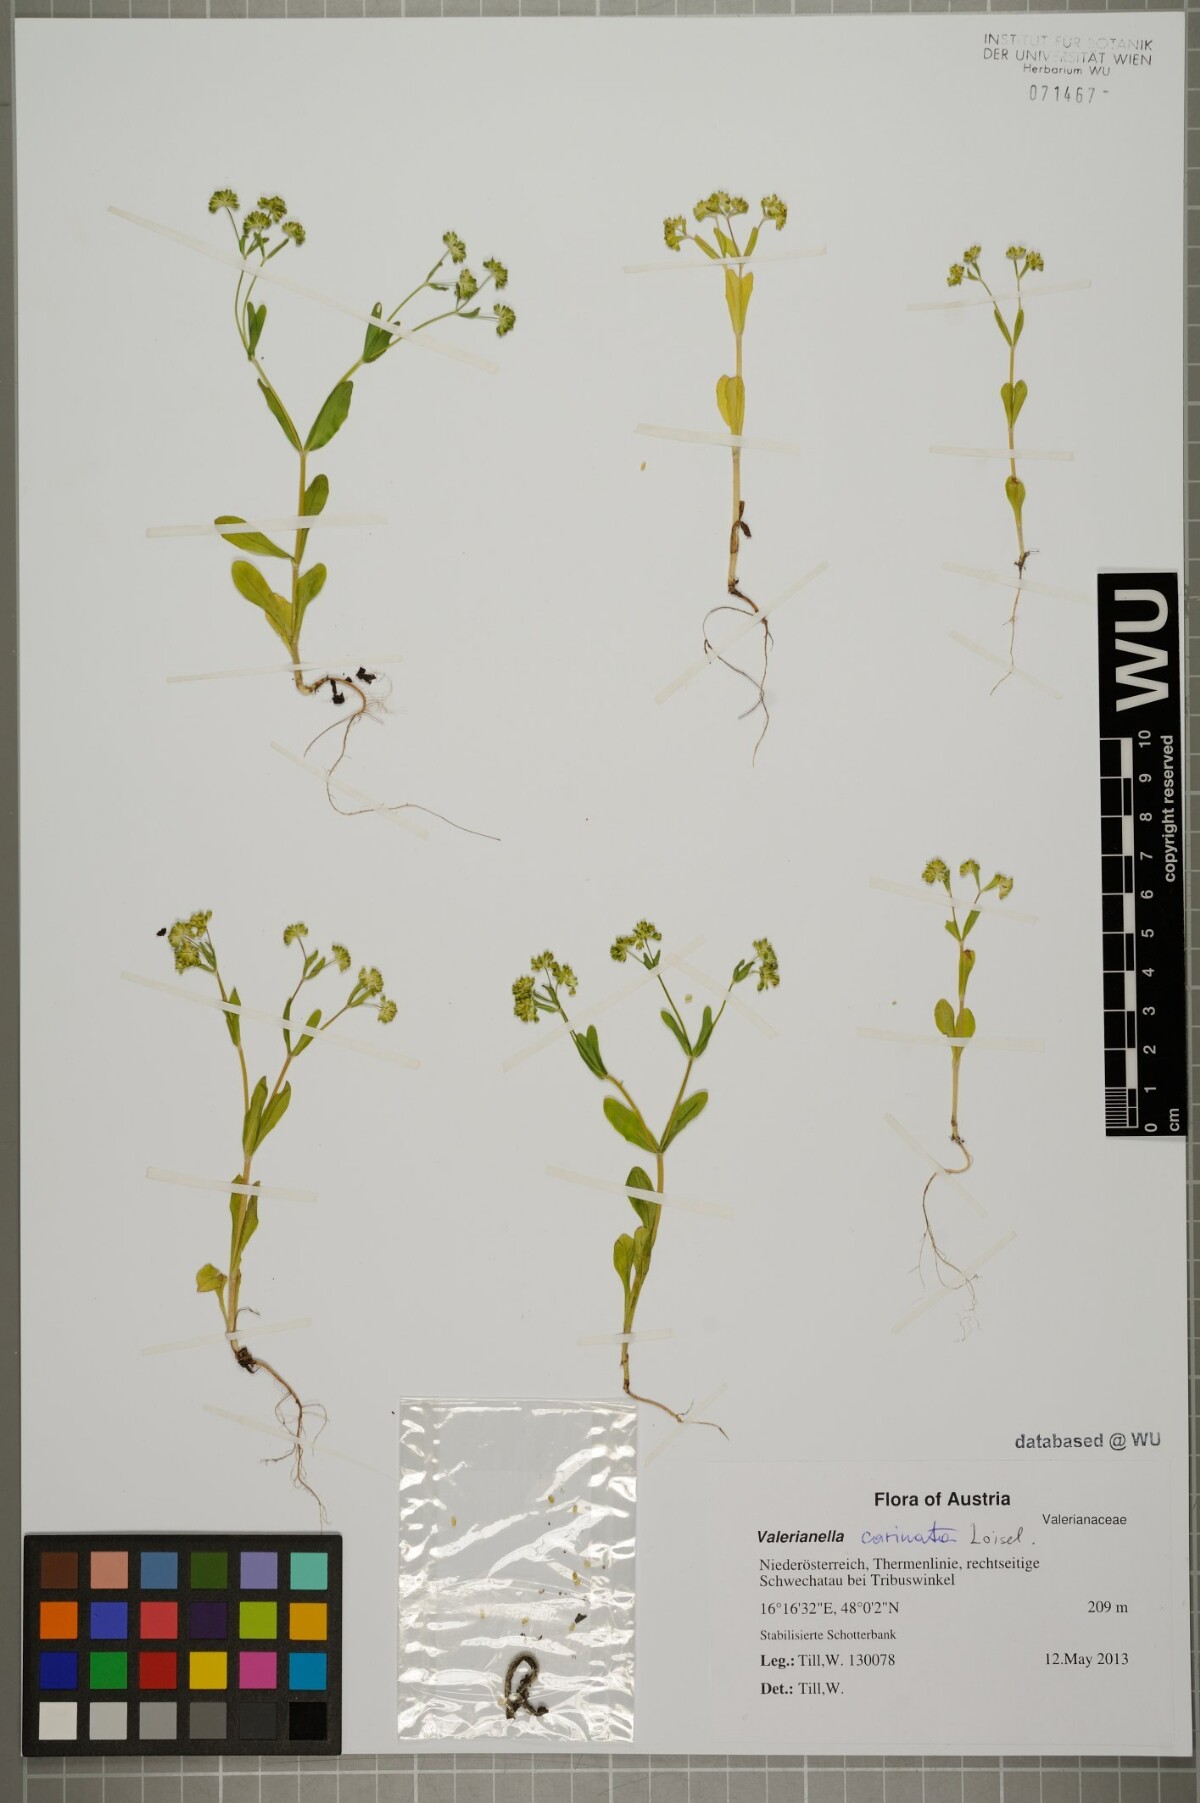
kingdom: Plantae
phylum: Tracheophyta
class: Magnoliopsida
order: Dipsacales
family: Caprifoliaceae
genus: Valerianella
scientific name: Valerianella carinata
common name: Keeled-fruited cornsalad
